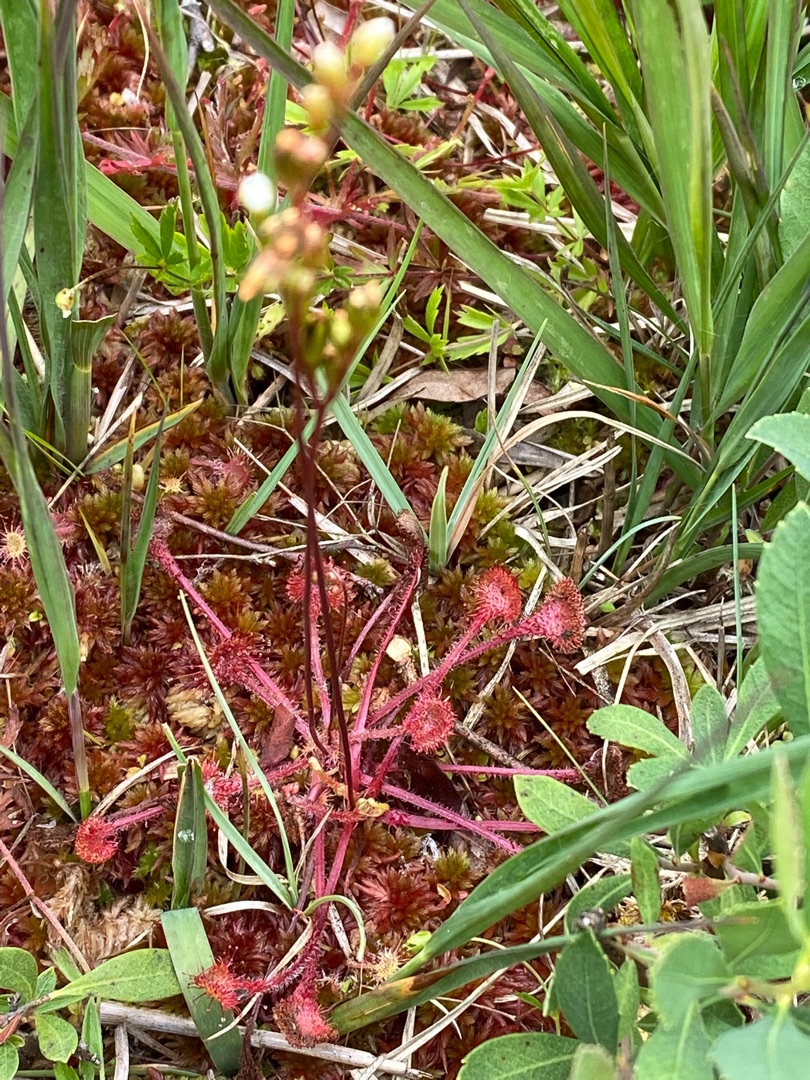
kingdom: Plantae
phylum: Tracheophyta
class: Magnoliopsida
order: Caryophyllales
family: Droseraceae
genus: Drosera
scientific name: Drosera rotundifolia
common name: Rundbladet soldug
